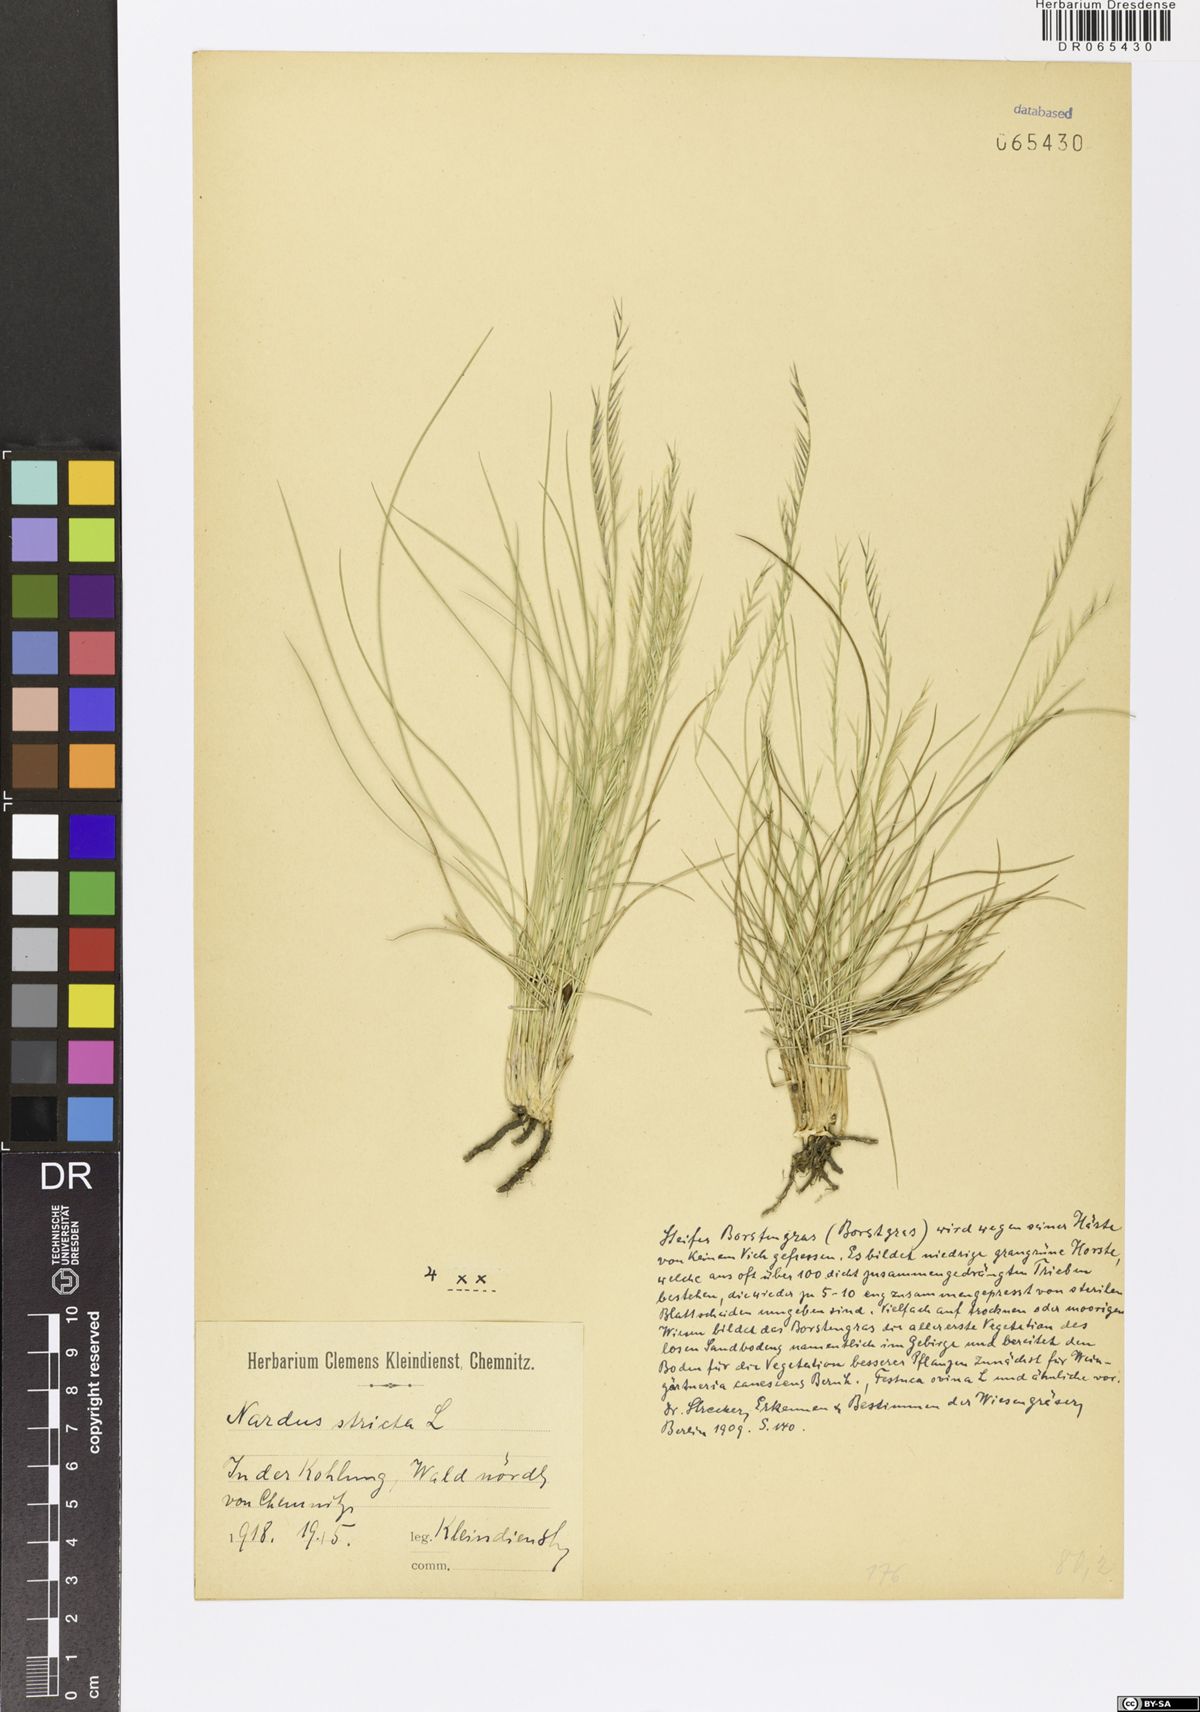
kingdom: Plantae
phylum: Tracheophyta
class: Liliopsida
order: Poales
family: Poaceae
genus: Nardus
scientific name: Nardus stricta
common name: Mat-grass
